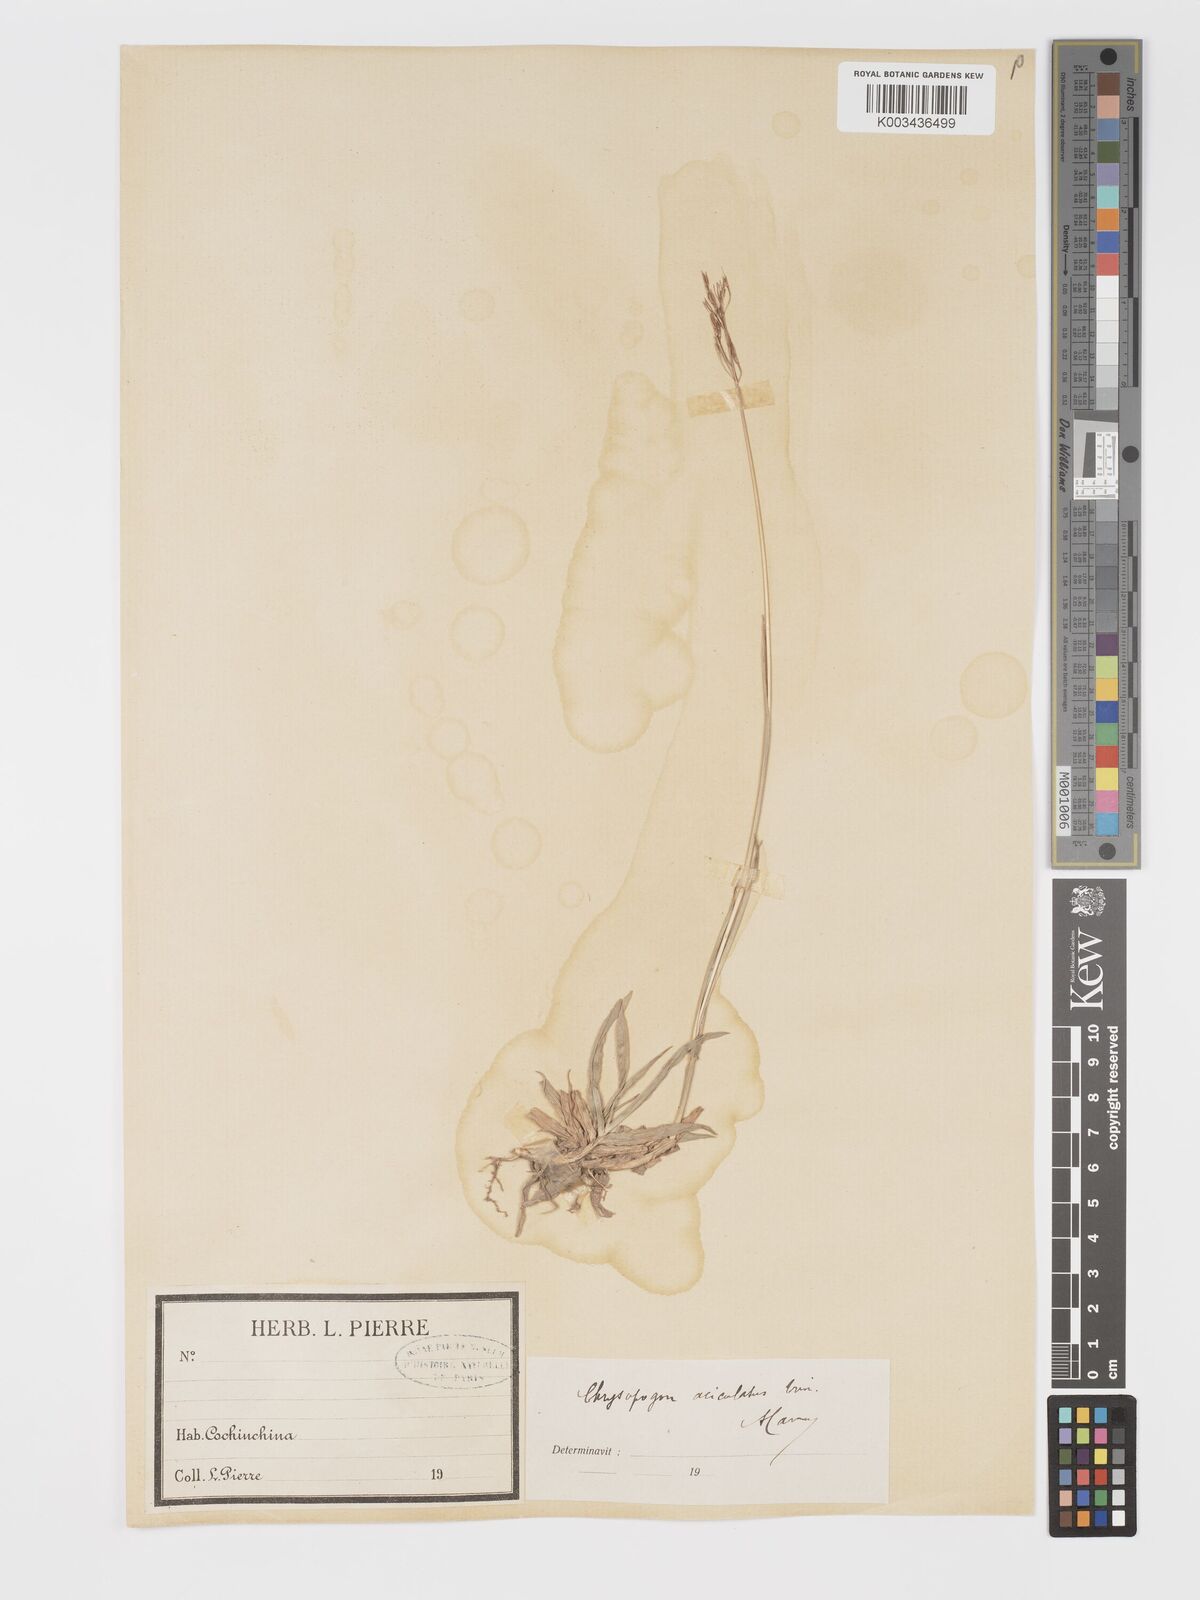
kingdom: Plantae
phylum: Tracheophyta
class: Liliopsida
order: Poales
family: Poaceae
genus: Chrysopogon
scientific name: Chrysopogon aciculatus
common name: Pilipiliula
